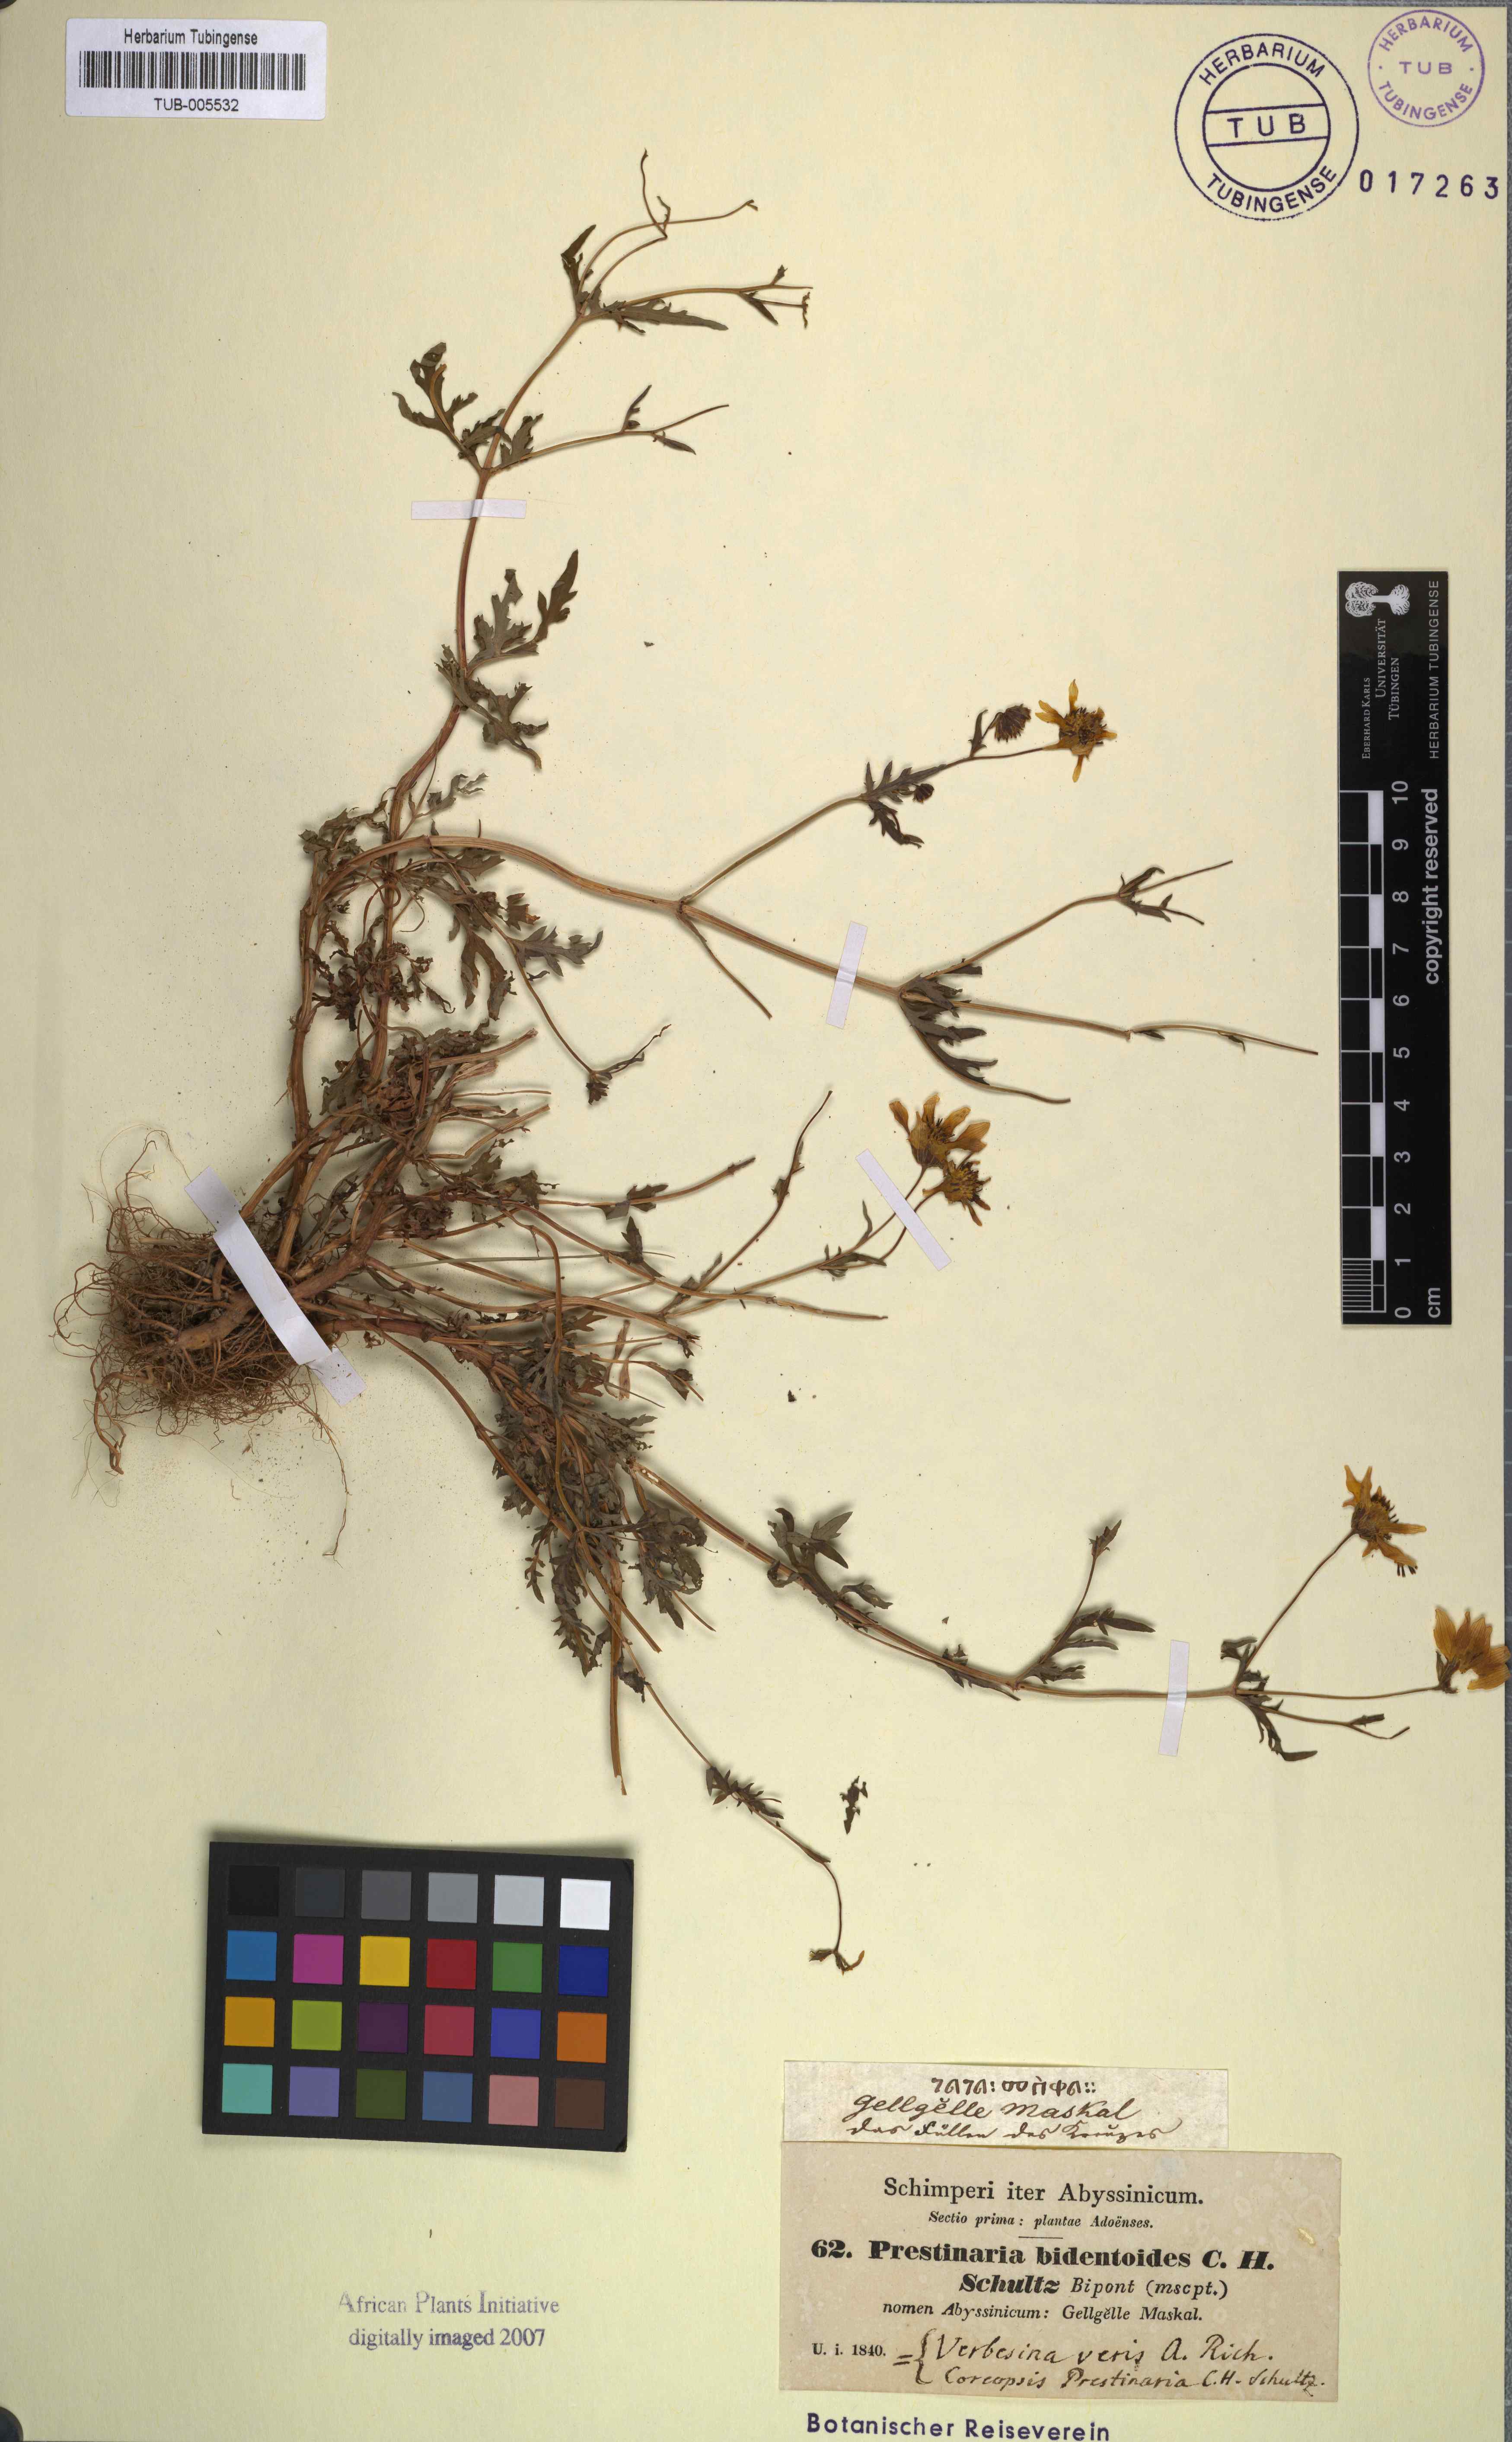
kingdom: Plantae
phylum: Tracheophyta
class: Magnoliopsida
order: Asterales
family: Asteraceae
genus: Bidens
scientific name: Bidens prestinaria
